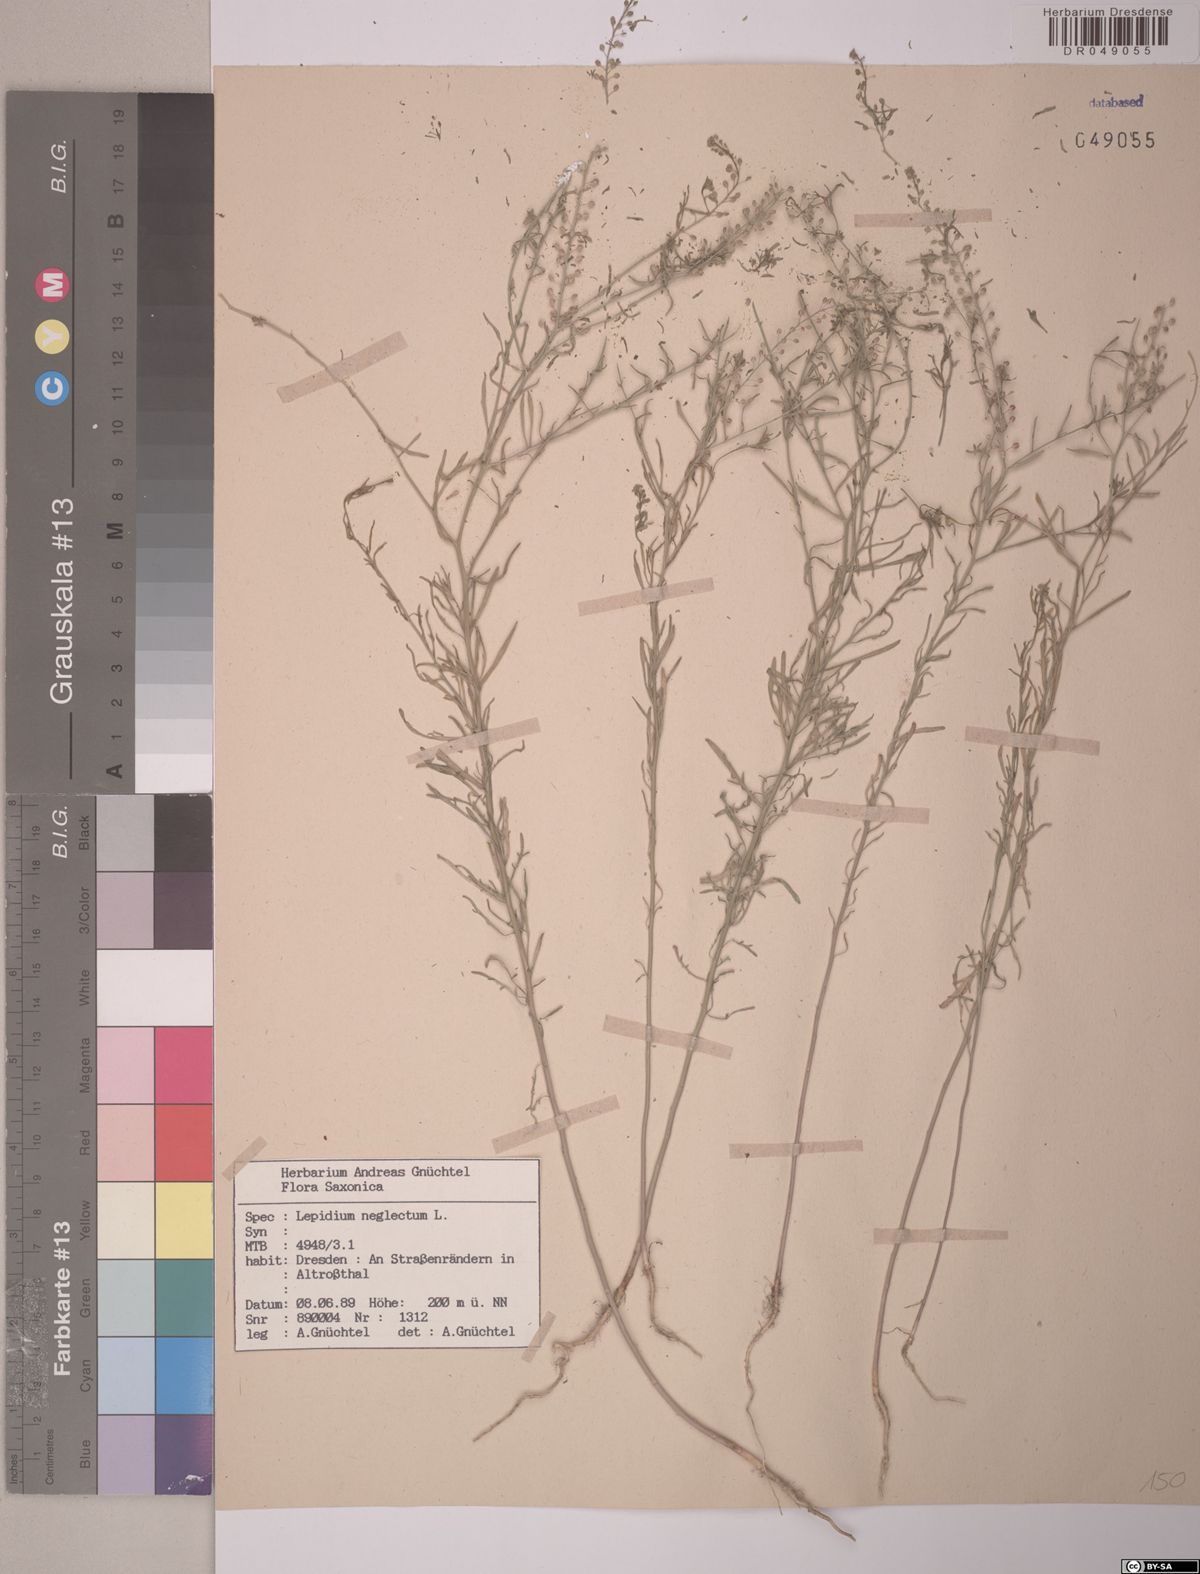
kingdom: Plantae
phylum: Tracheophyta
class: Magnoliopsida
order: Brassicales
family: Brassicaceae
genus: Lepidium
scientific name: Lepidium densiflorum
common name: Miner's pepperwort
